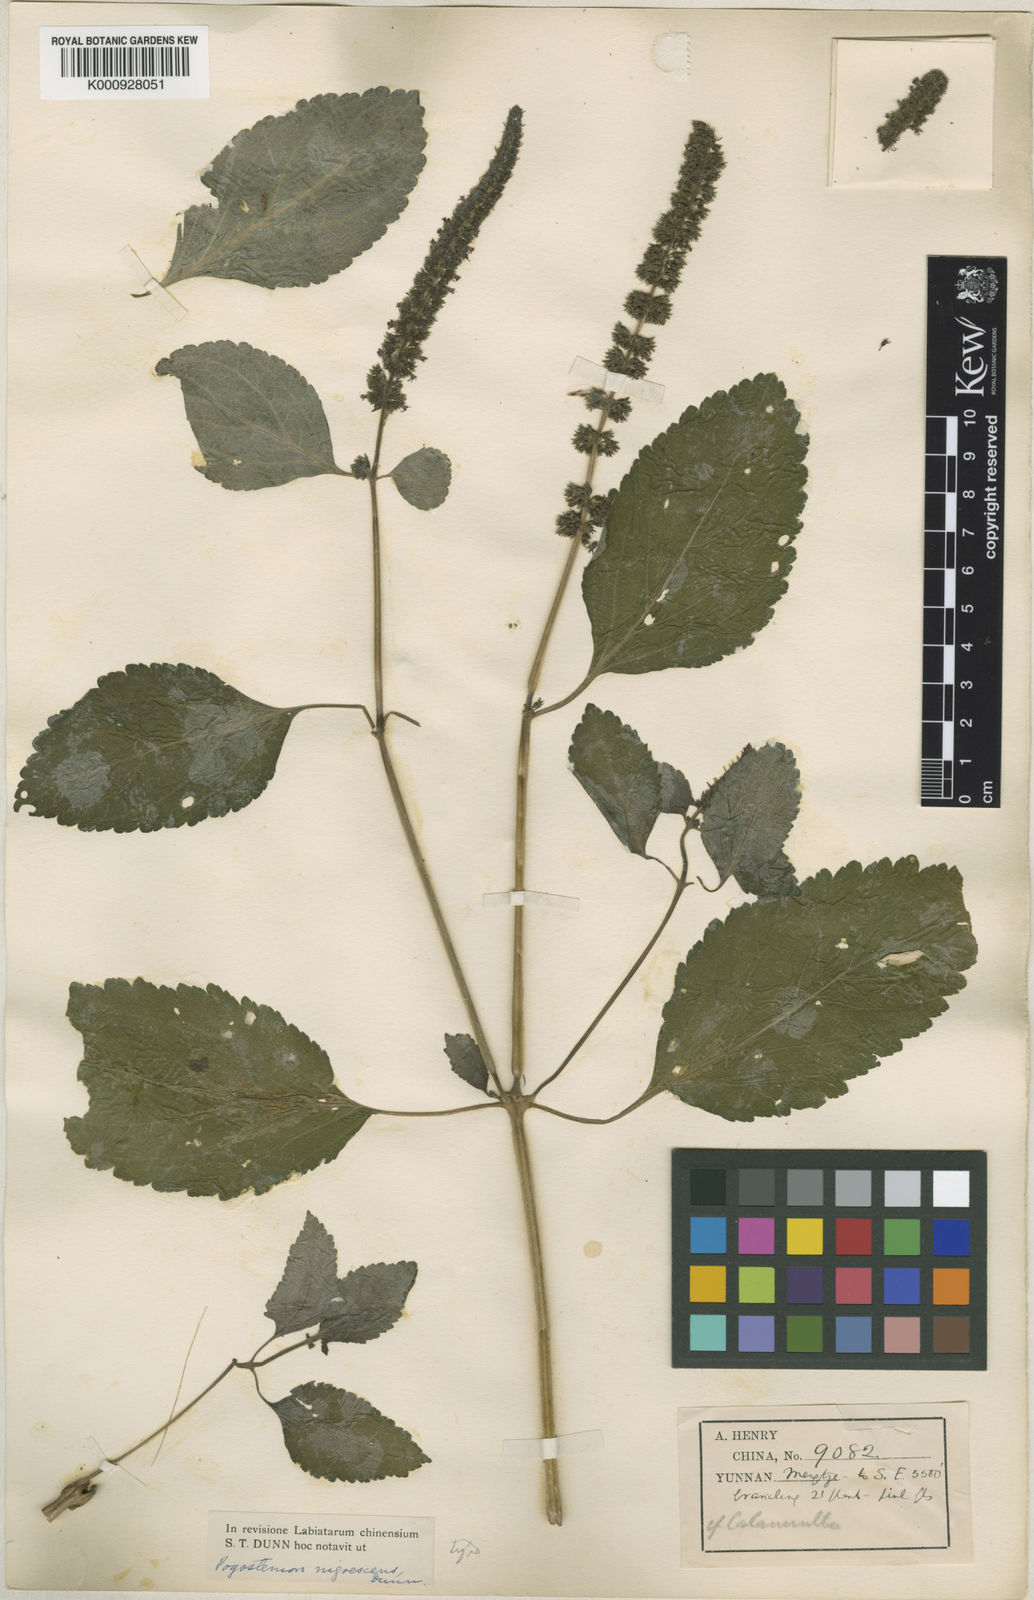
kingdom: Plantae
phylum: Tracheophyta
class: Magnoliopsida
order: Lamiales
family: Lamiaceae
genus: Pogostemon
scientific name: Pogostemon brachystachyus
